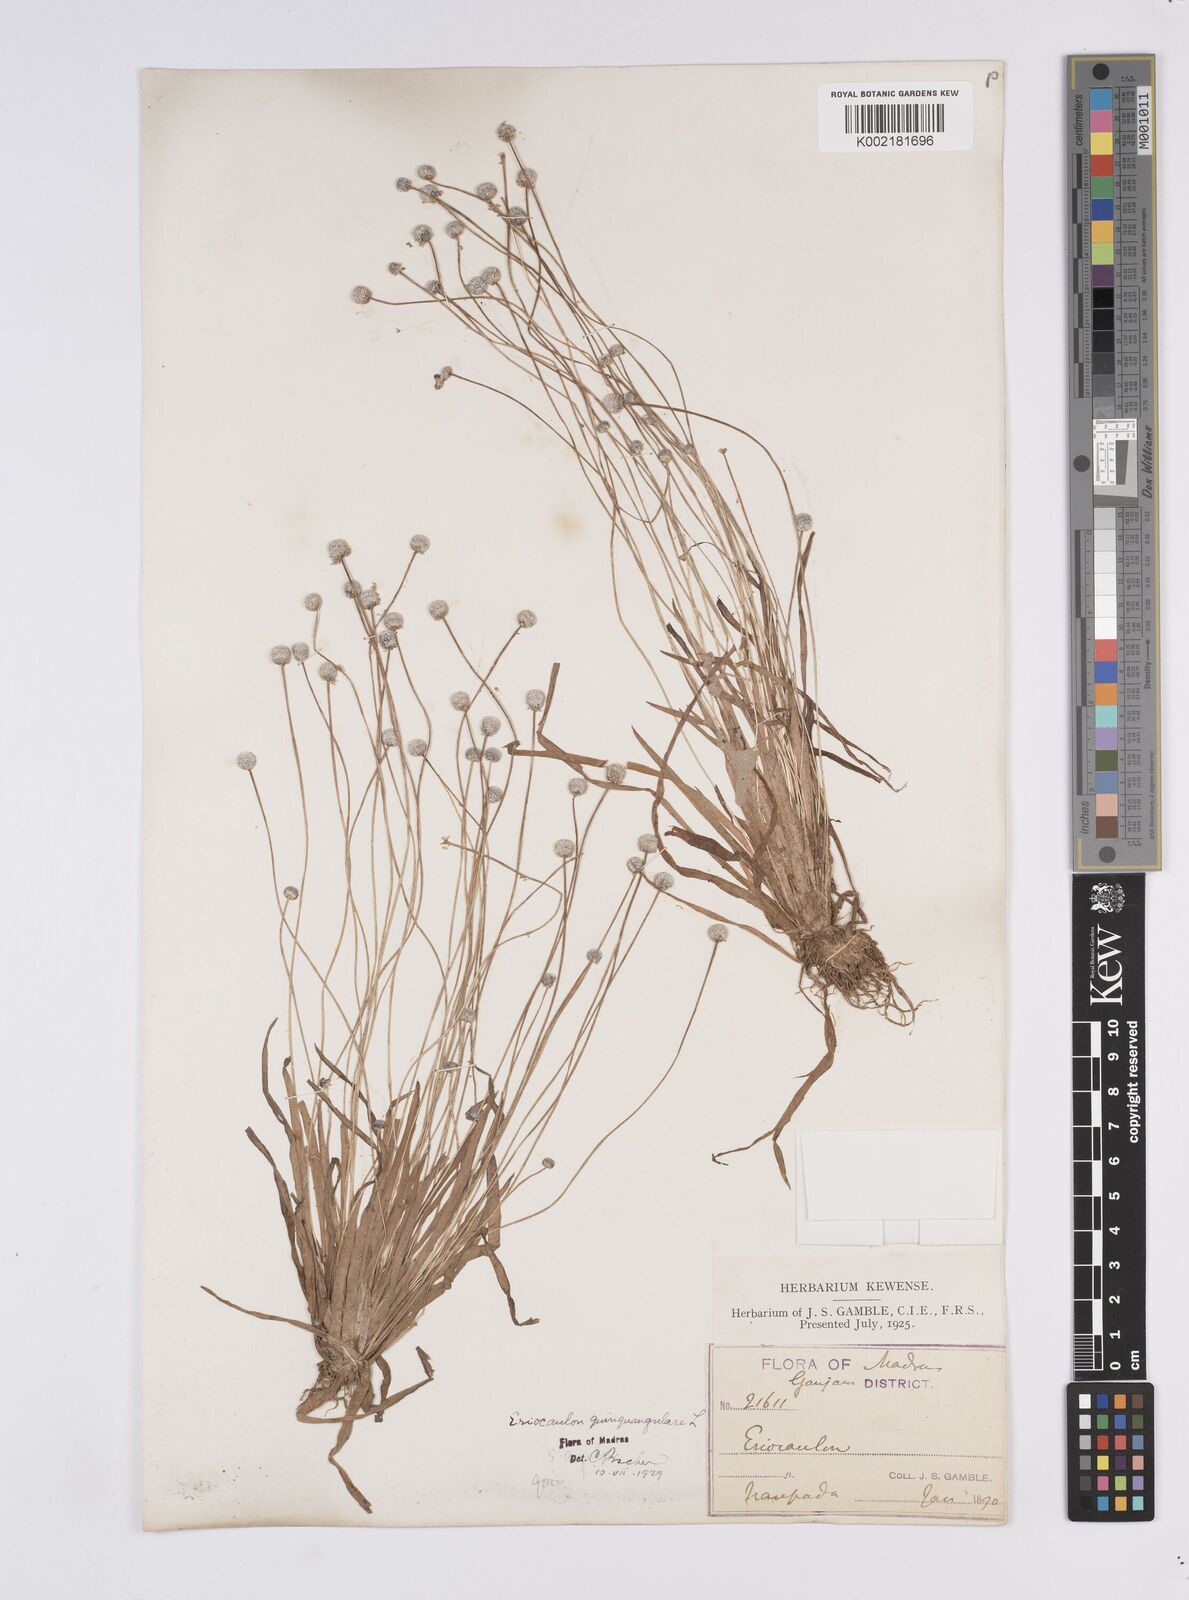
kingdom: Plantae
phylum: Tracheophyta
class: Liliopsida
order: Poales
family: Eriocaulaceae
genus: Eriocaulon
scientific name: Eriocaulon quinquangulare
